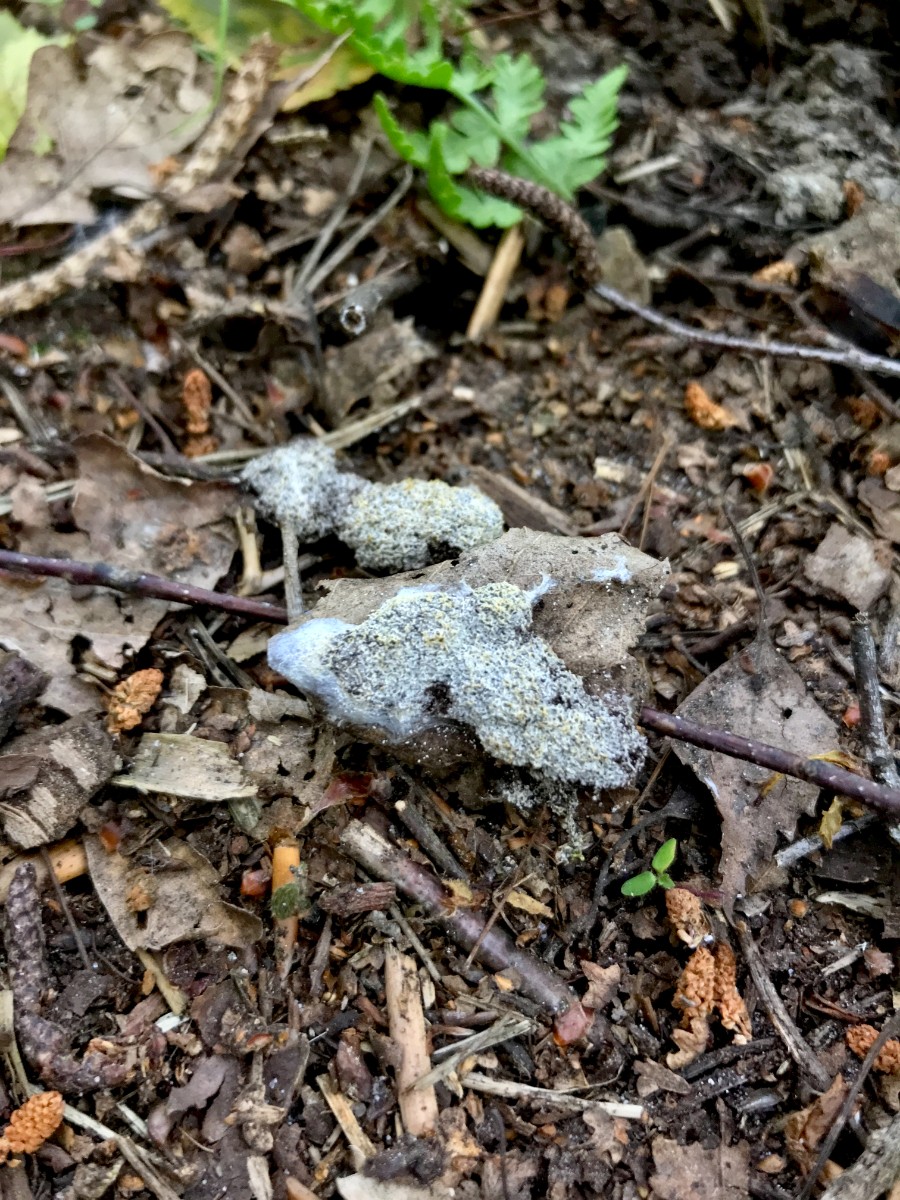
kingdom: Protozoa
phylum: Mycetozoa
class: Myxomycetes
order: Physarales
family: Physaraceae
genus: Fuligo
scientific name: Fuligo septica
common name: gul troldsmør
